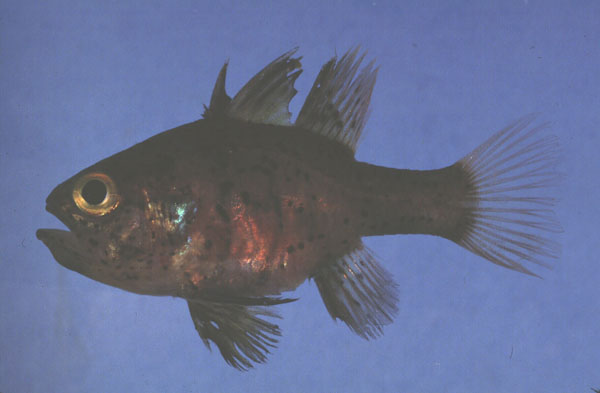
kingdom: Animalia
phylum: Chordata
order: Perciformes
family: Apogonidae
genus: Apogon
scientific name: Apogon
